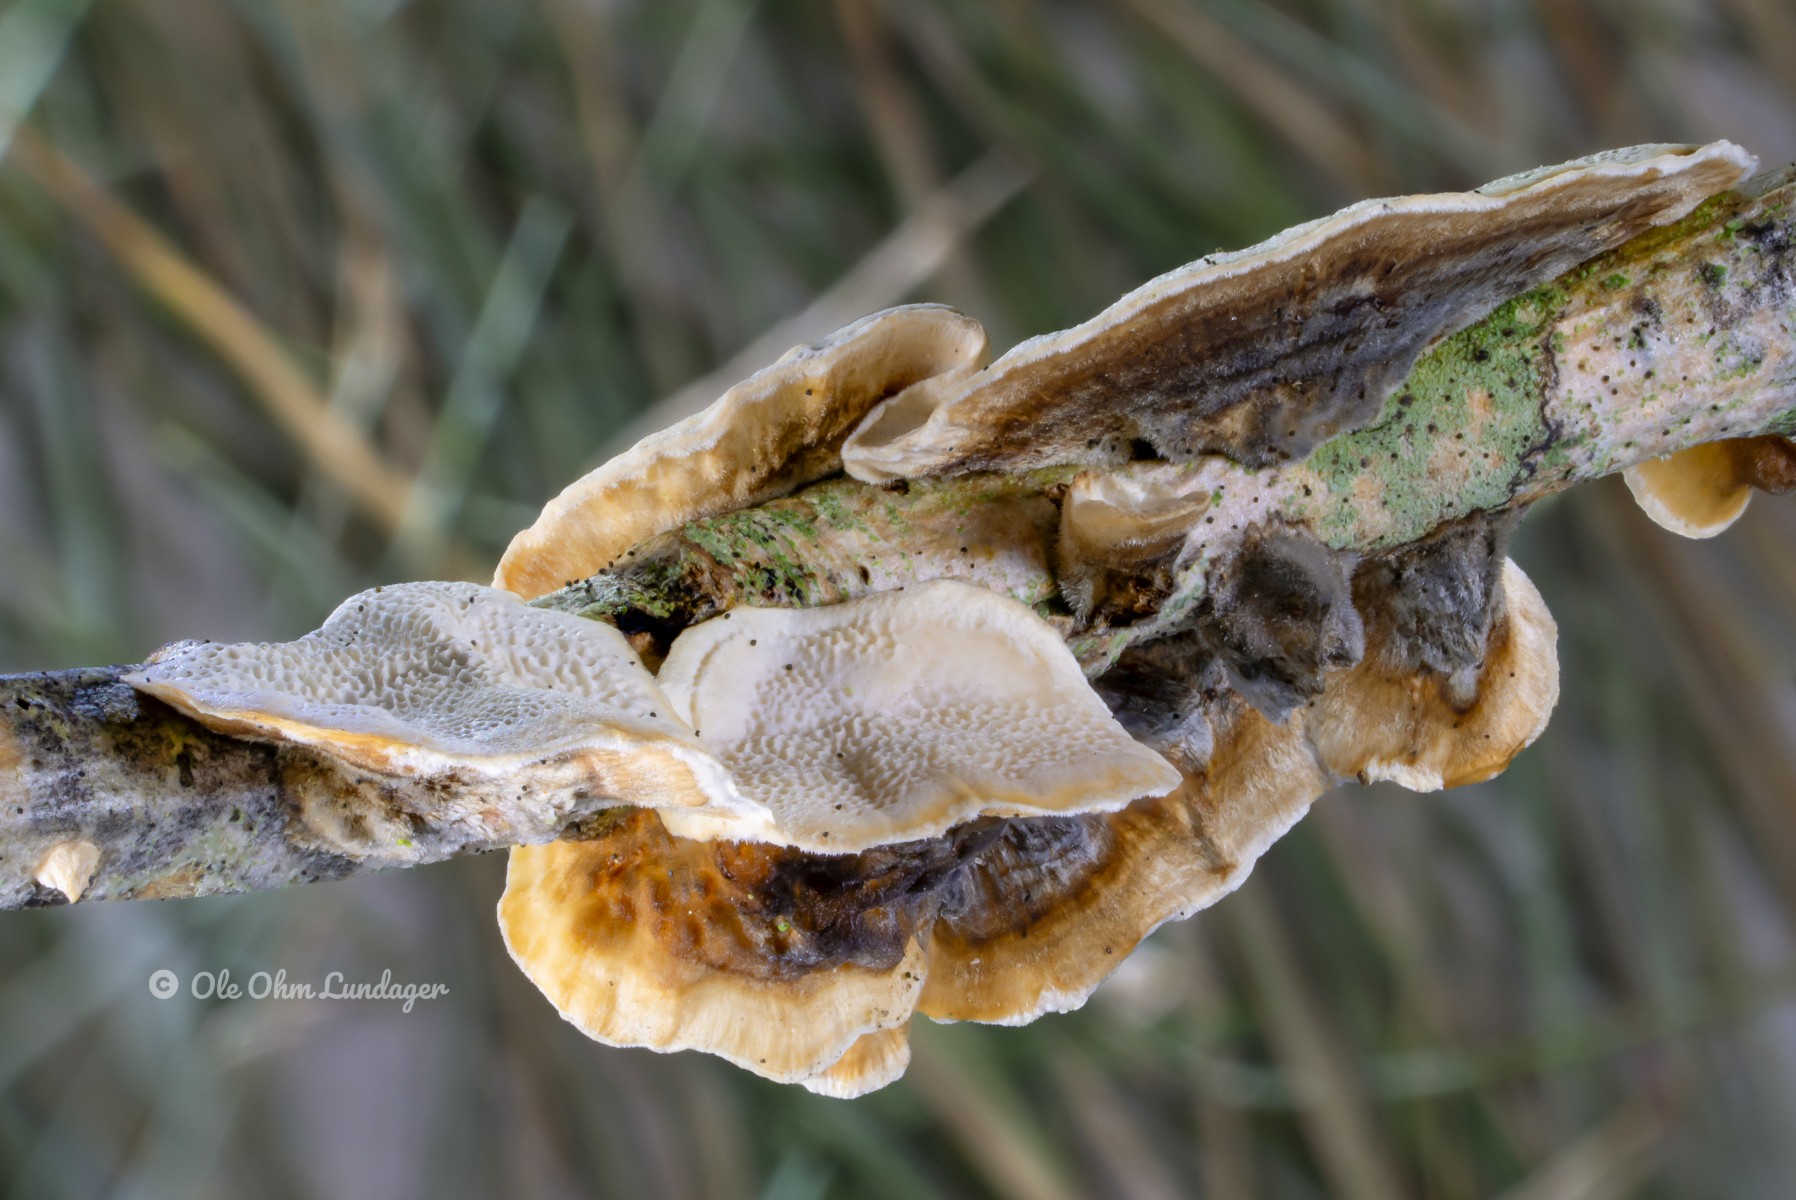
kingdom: Fungi
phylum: Basidiomycota
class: Agaricomycetes
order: Polyporales
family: Polyporaceae
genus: Trametes
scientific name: Trametes versicolor
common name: broget læderporesvamp
